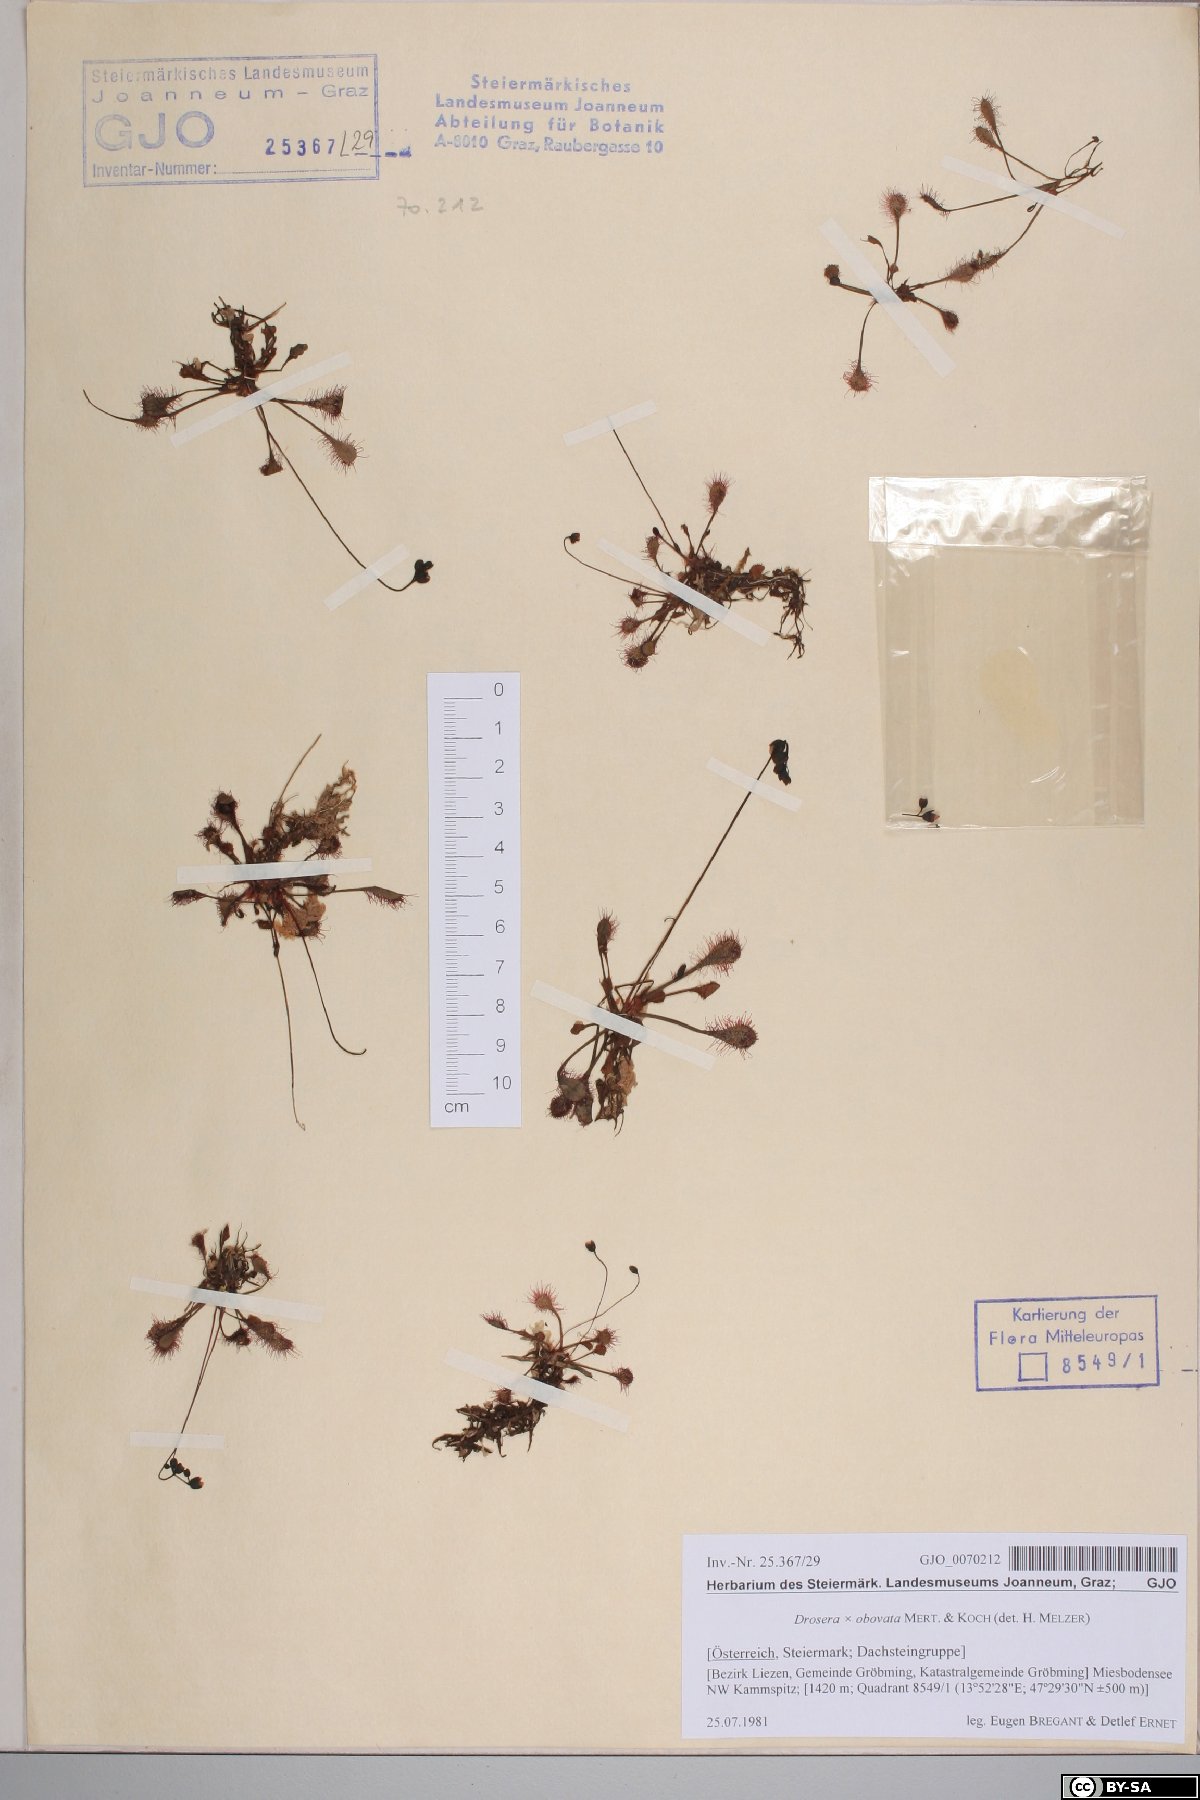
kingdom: Plantae
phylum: Tracheophyta
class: Magnoliopsida
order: Caryophyllales
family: Droseraceae
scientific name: Droseraceae
